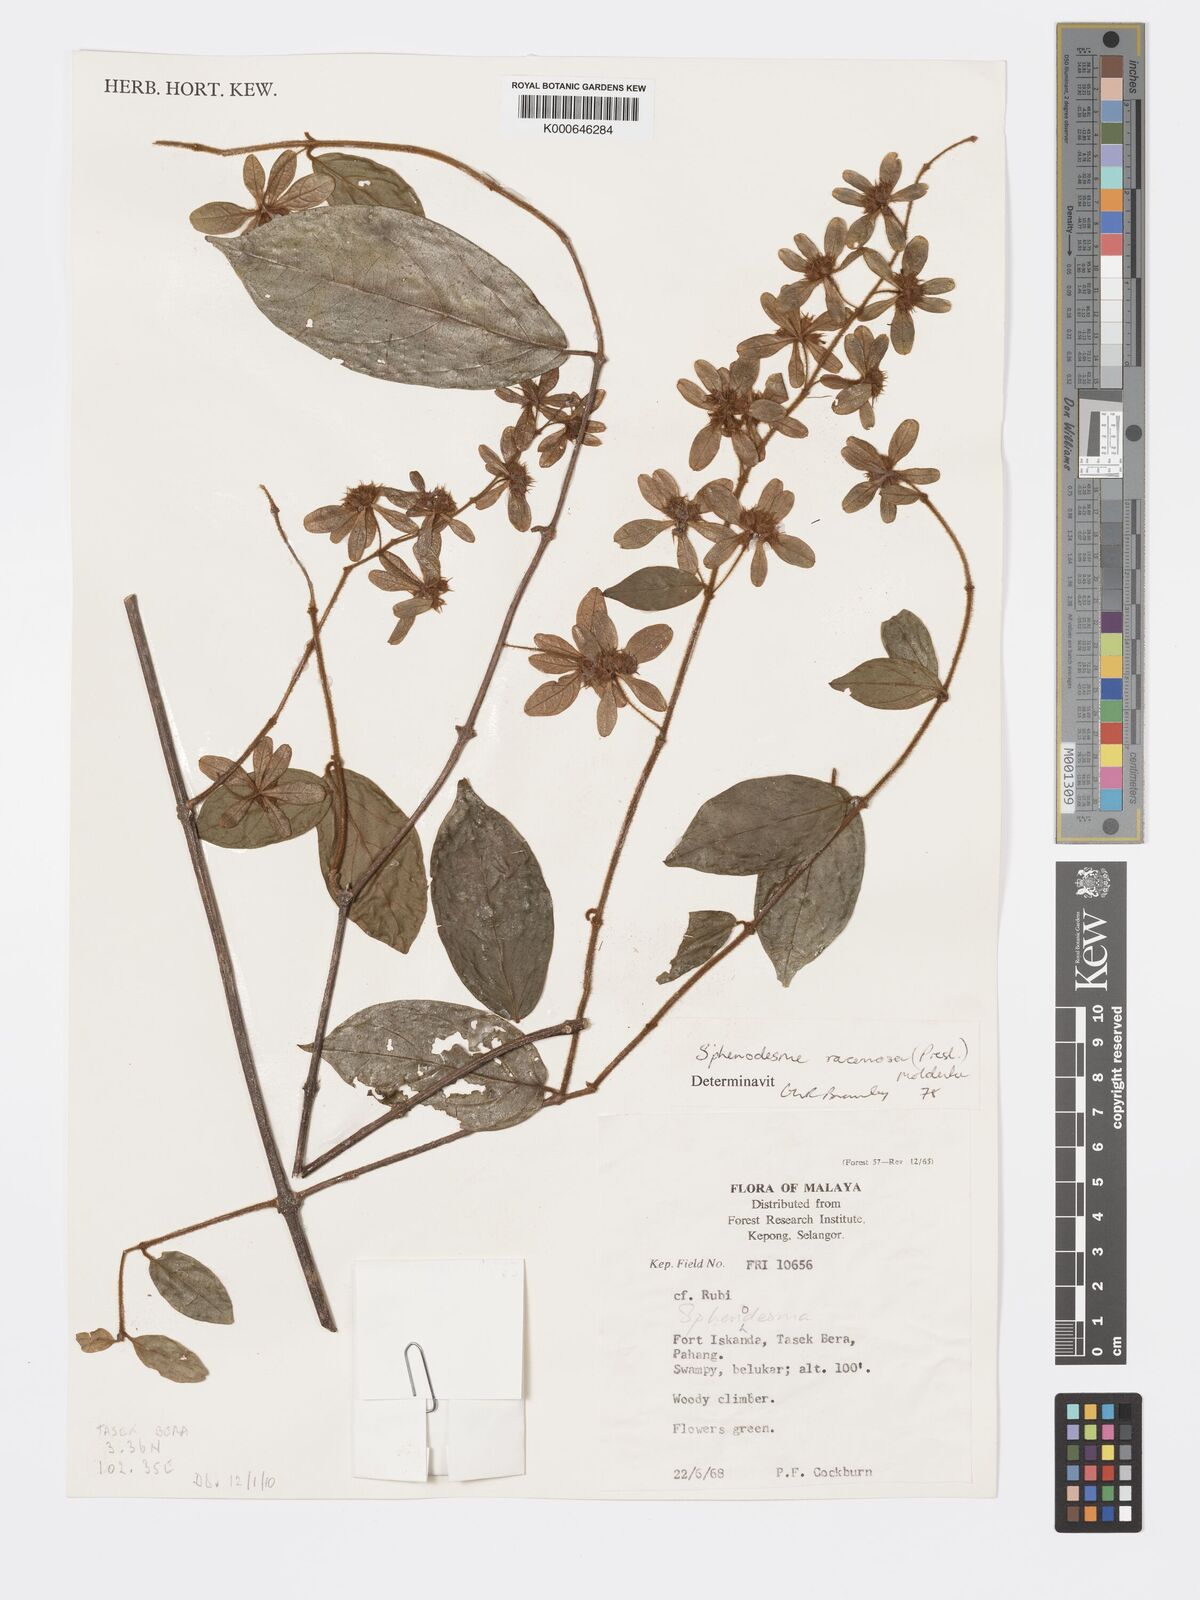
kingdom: Plantae
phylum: Tracheophyta
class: Magnoliopsida
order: Lamiales
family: Lamiaceae
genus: Sphenodesme
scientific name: Sphenodesme racemosa
